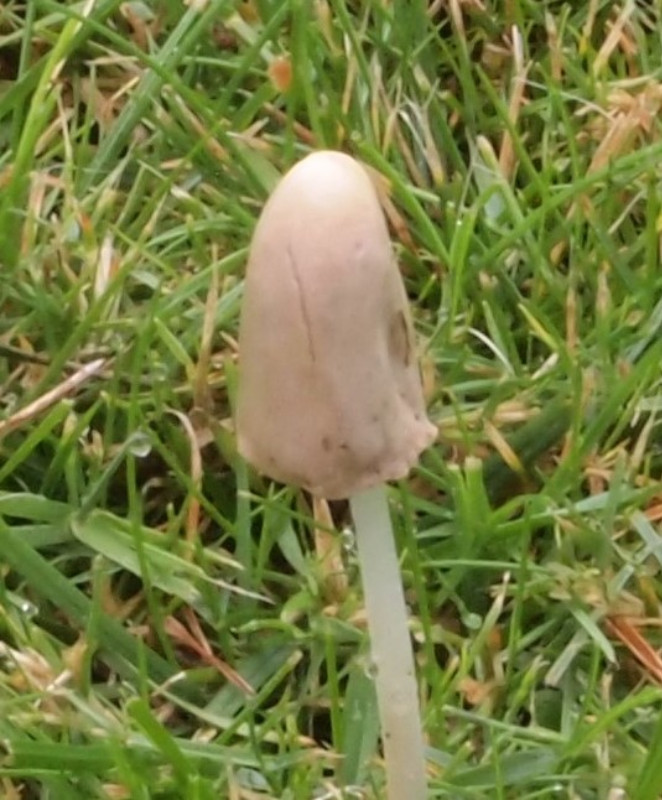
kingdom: Fungi
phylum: Basidiomycota
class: Agaricomycetes
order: Agaricales
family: Bolbitiaceae
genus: Conocybe
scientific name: Conocybe apala
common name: mælkehvid keglehat
